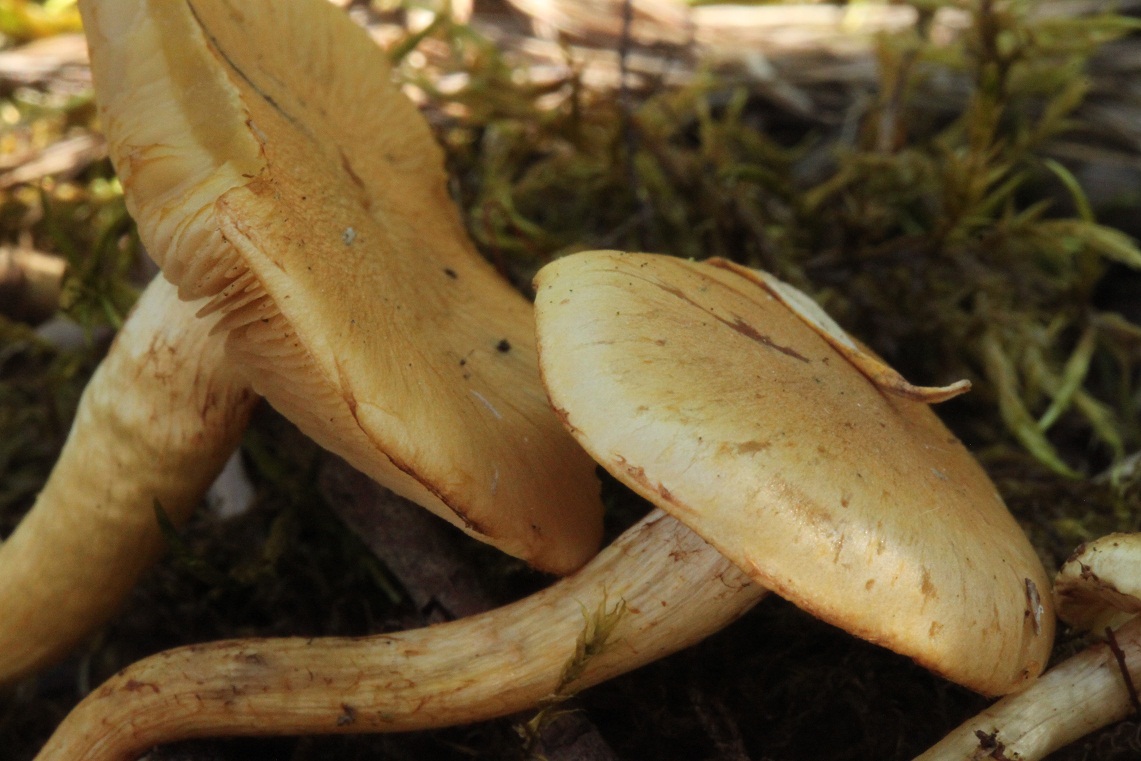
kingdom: Fungi
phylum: Basidiomycota
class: Agaricomycetes
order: Agaricales
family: Strophariaceae
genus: Pholiota
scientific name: Pholiota conissans
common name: pile-skælhat
